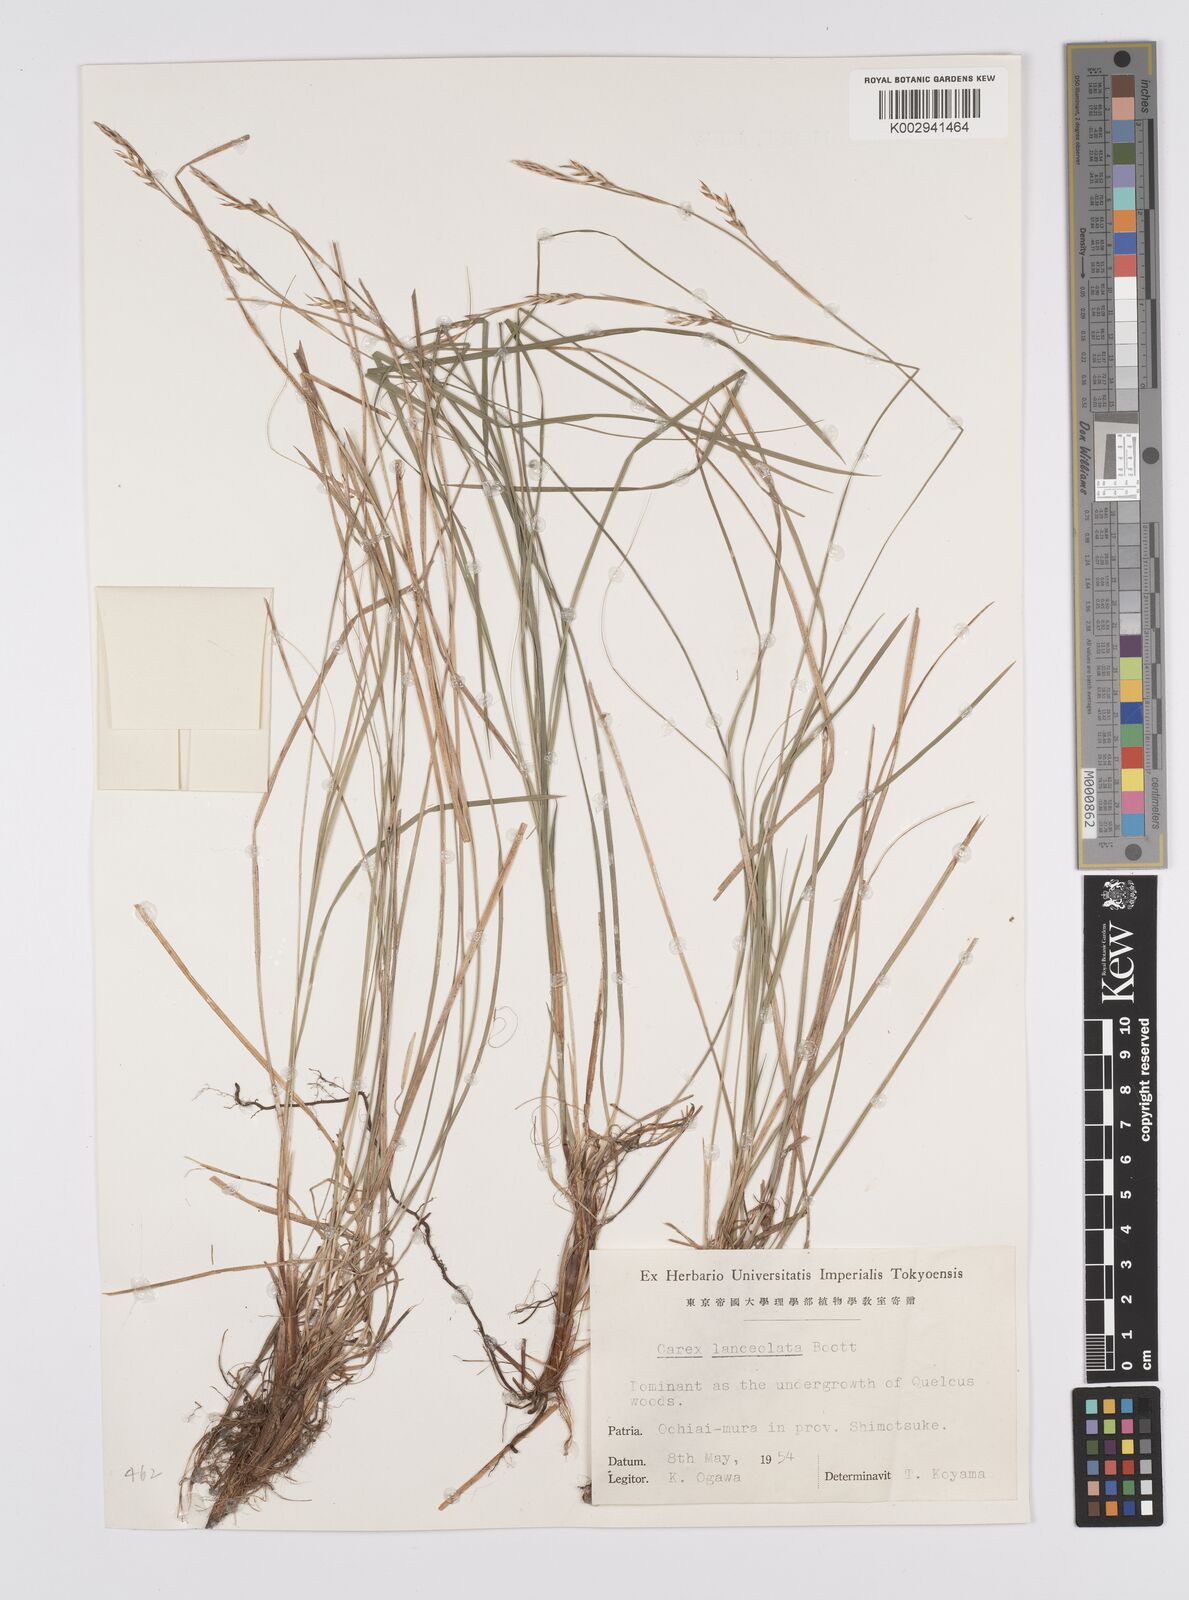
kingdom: Plantae
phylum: Tracheophyta
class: Liliopsida
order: Poales
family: Cyperaceae
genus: Carex
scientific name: Carex lanceolata
